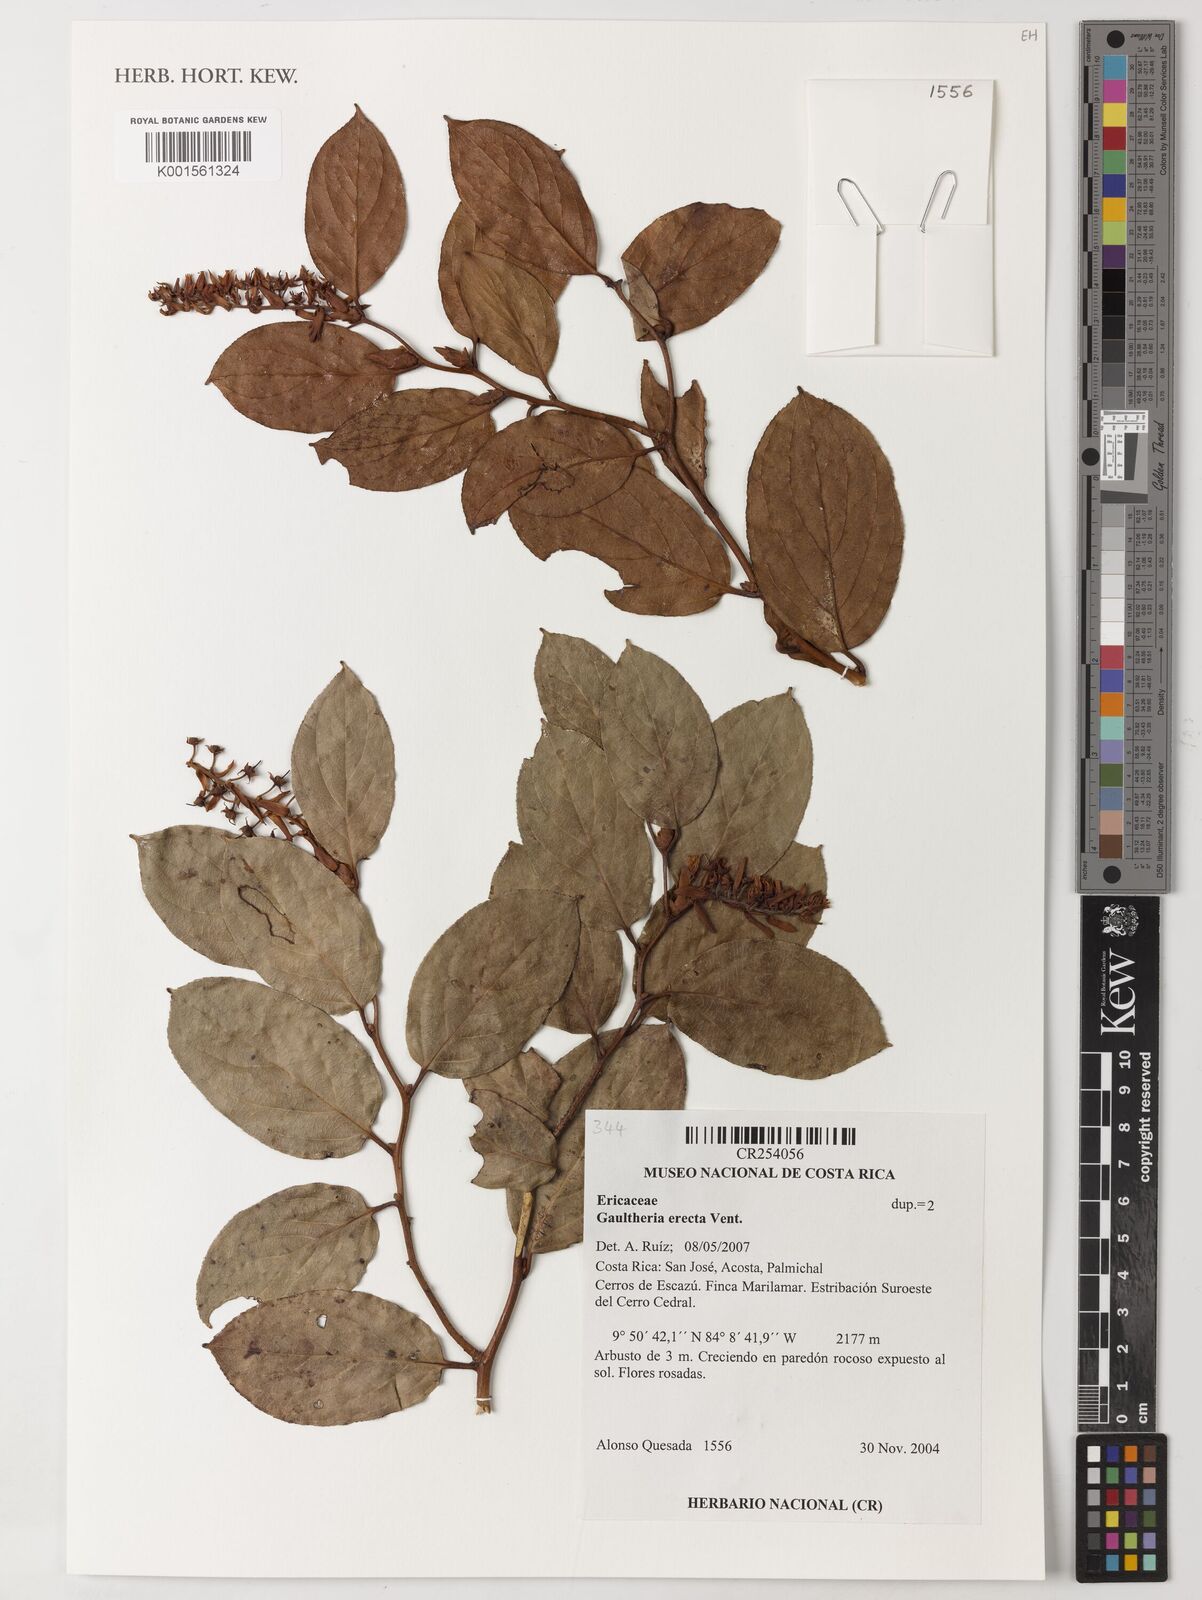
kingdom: Plantae
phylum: Tracheophyta
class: Magnoliopsida
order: Ericales
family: Ericaceae
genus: Gaultheria
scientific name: Gaultheria erecta
